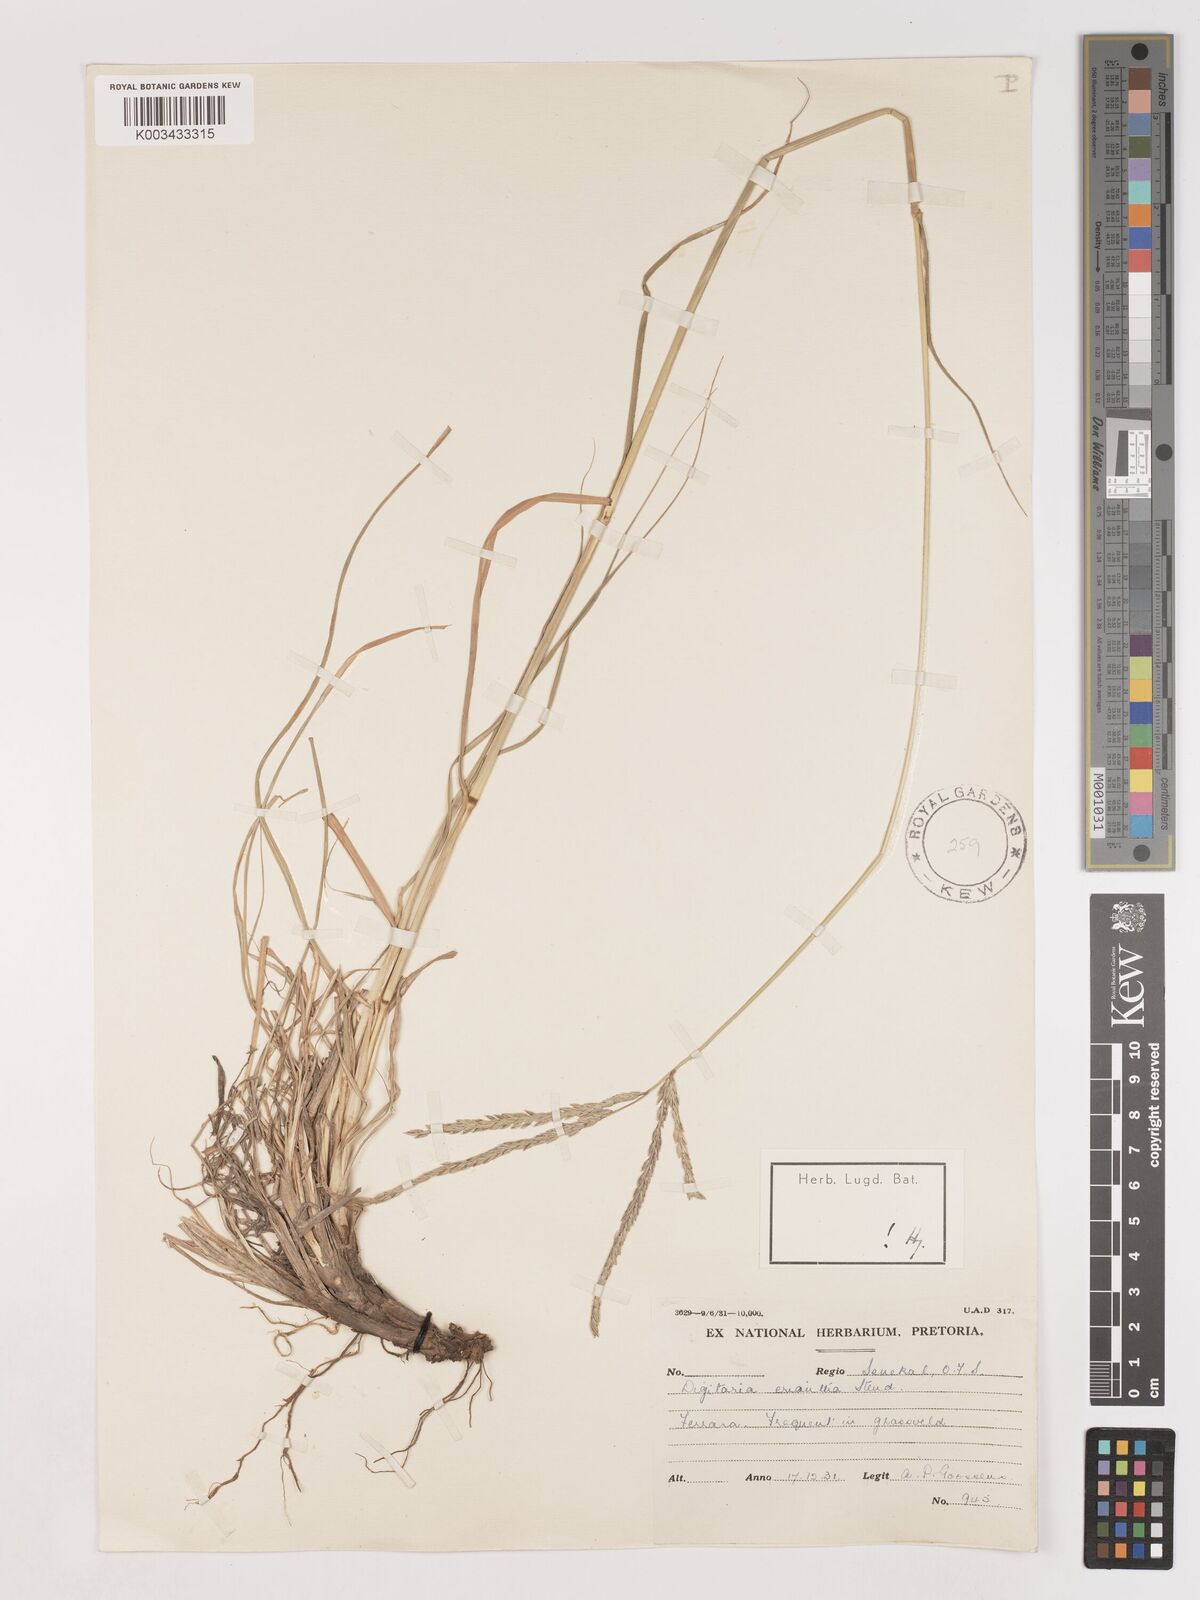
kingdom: Plantae
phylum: Tracheophyta
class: Liliopsida
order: Poales
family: Poaceae
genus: Digitaria
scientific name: Digitaria eriantha
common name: Digitgrass
